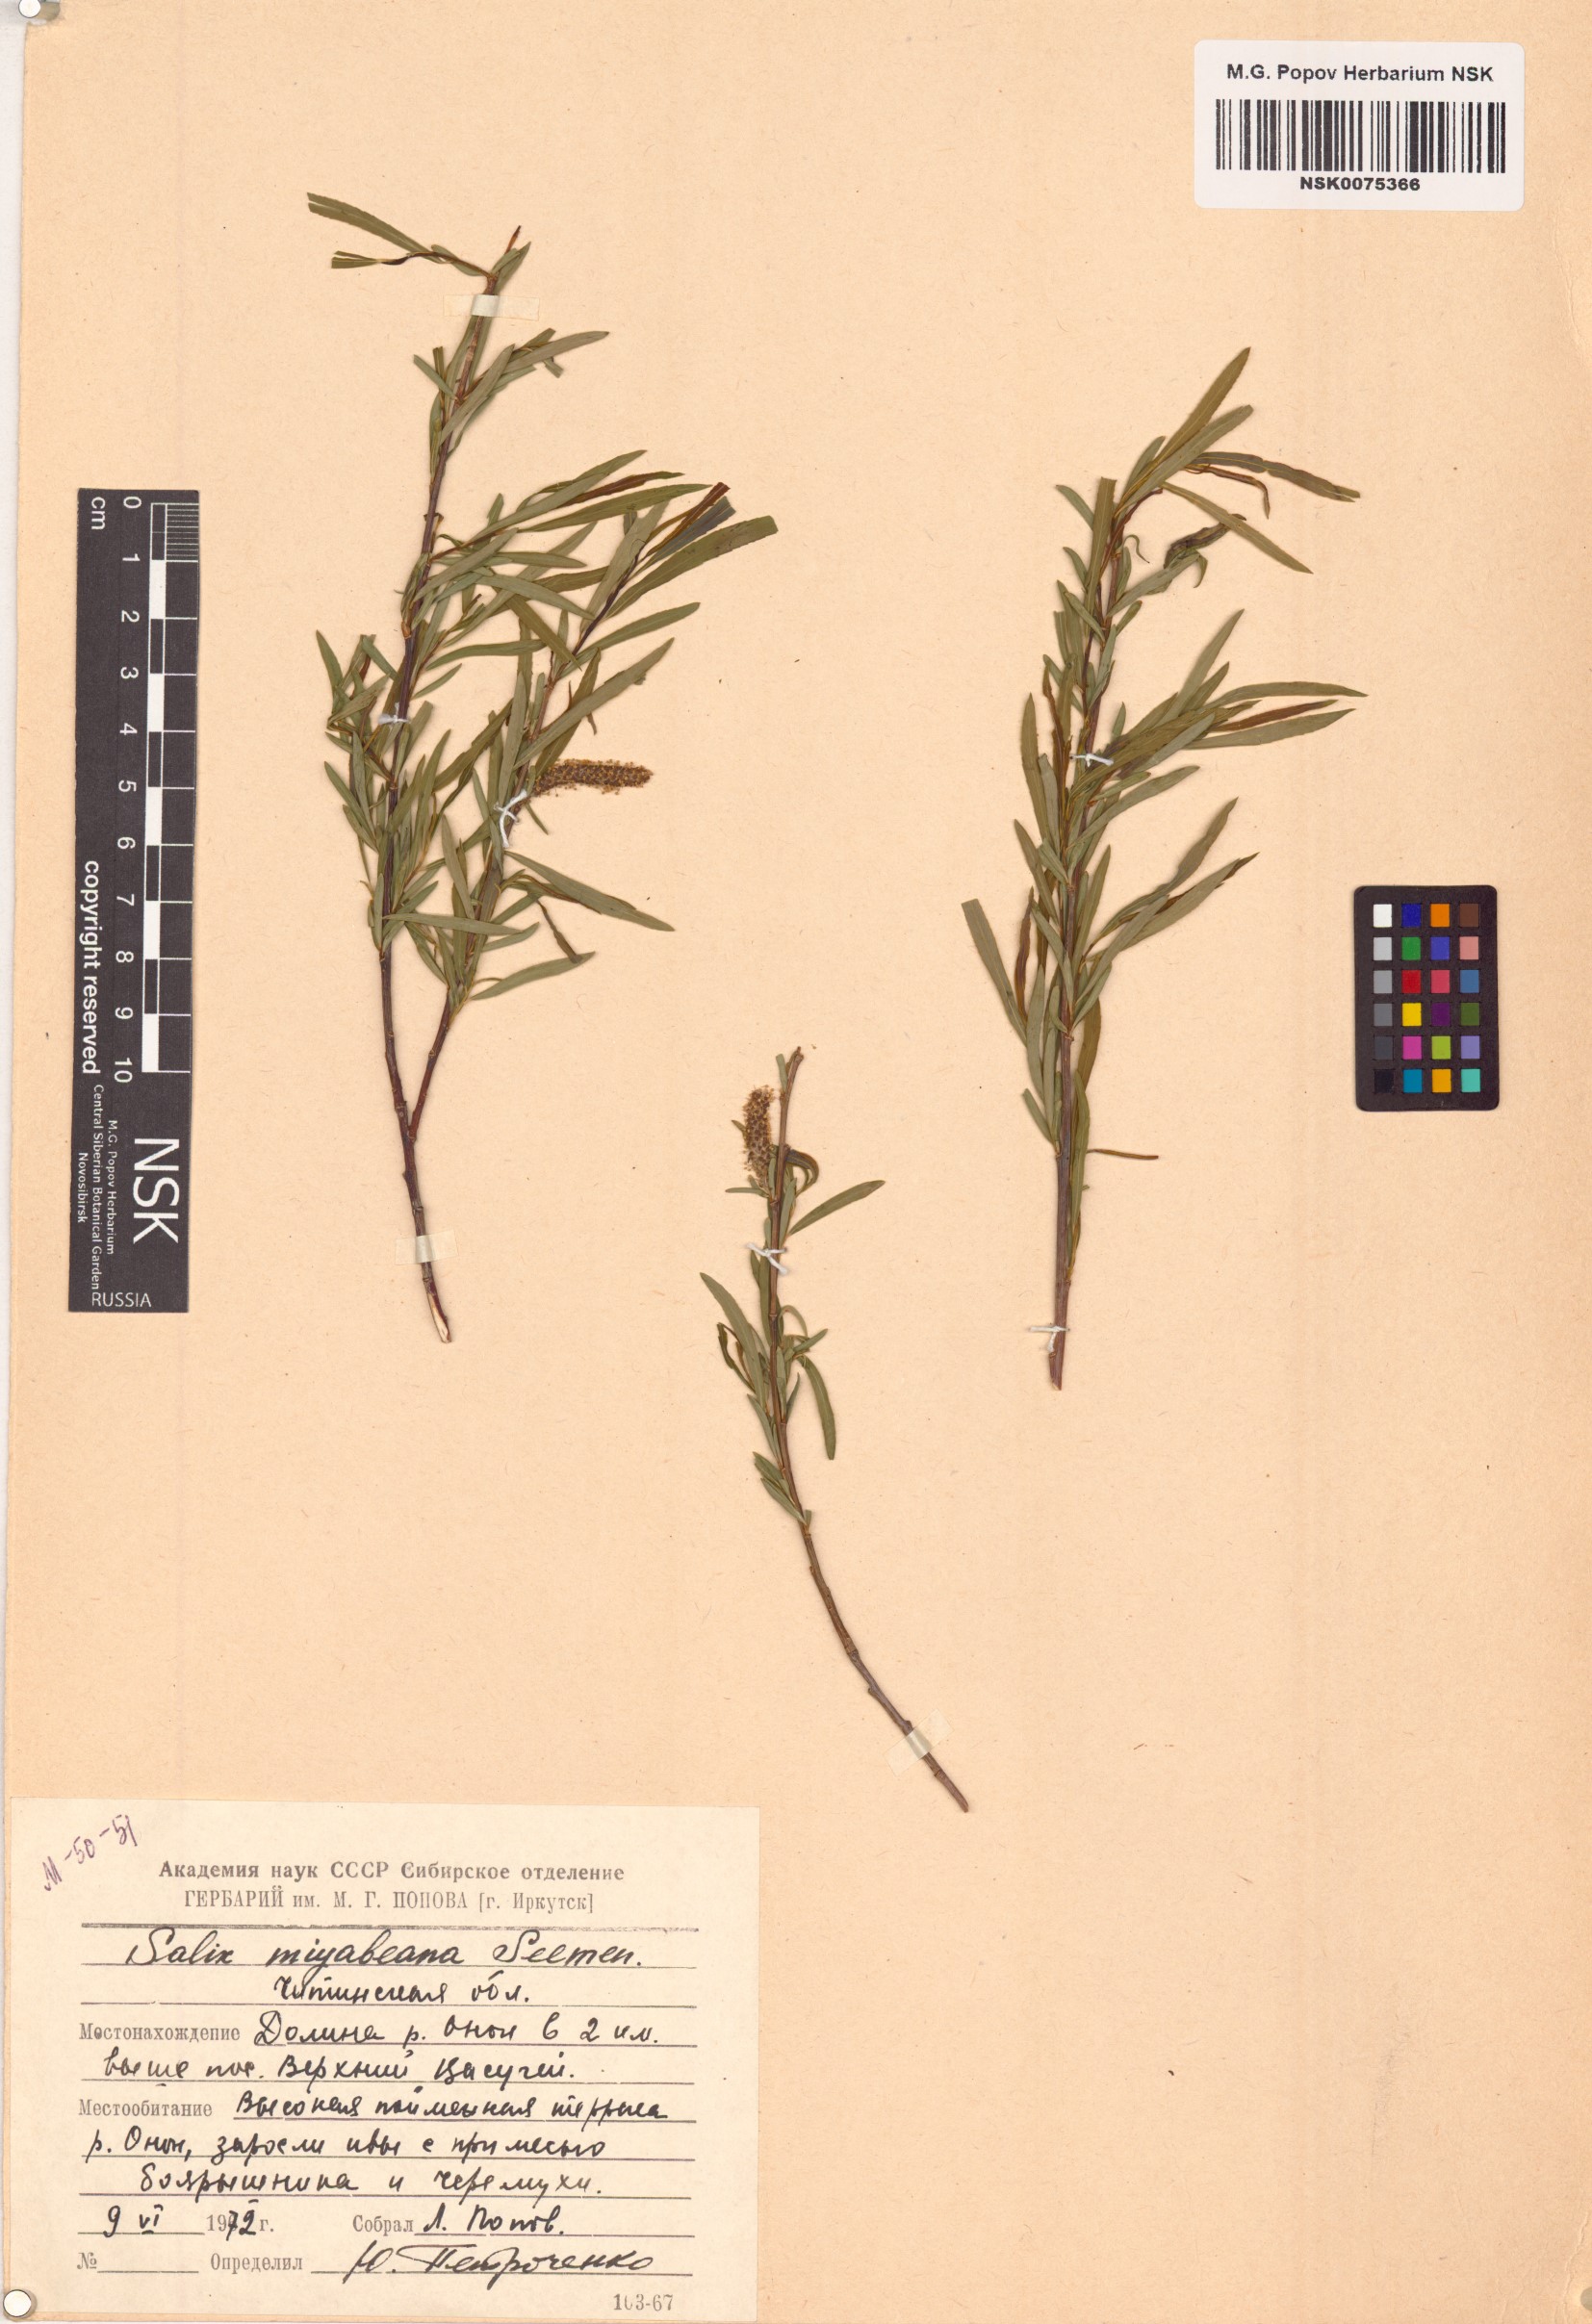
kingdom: Plantae
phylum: Tracheophyta
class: Magnoliopsida
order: Malpighiales
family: Salicaceae
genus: Salix
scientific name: Salix miyabeana
